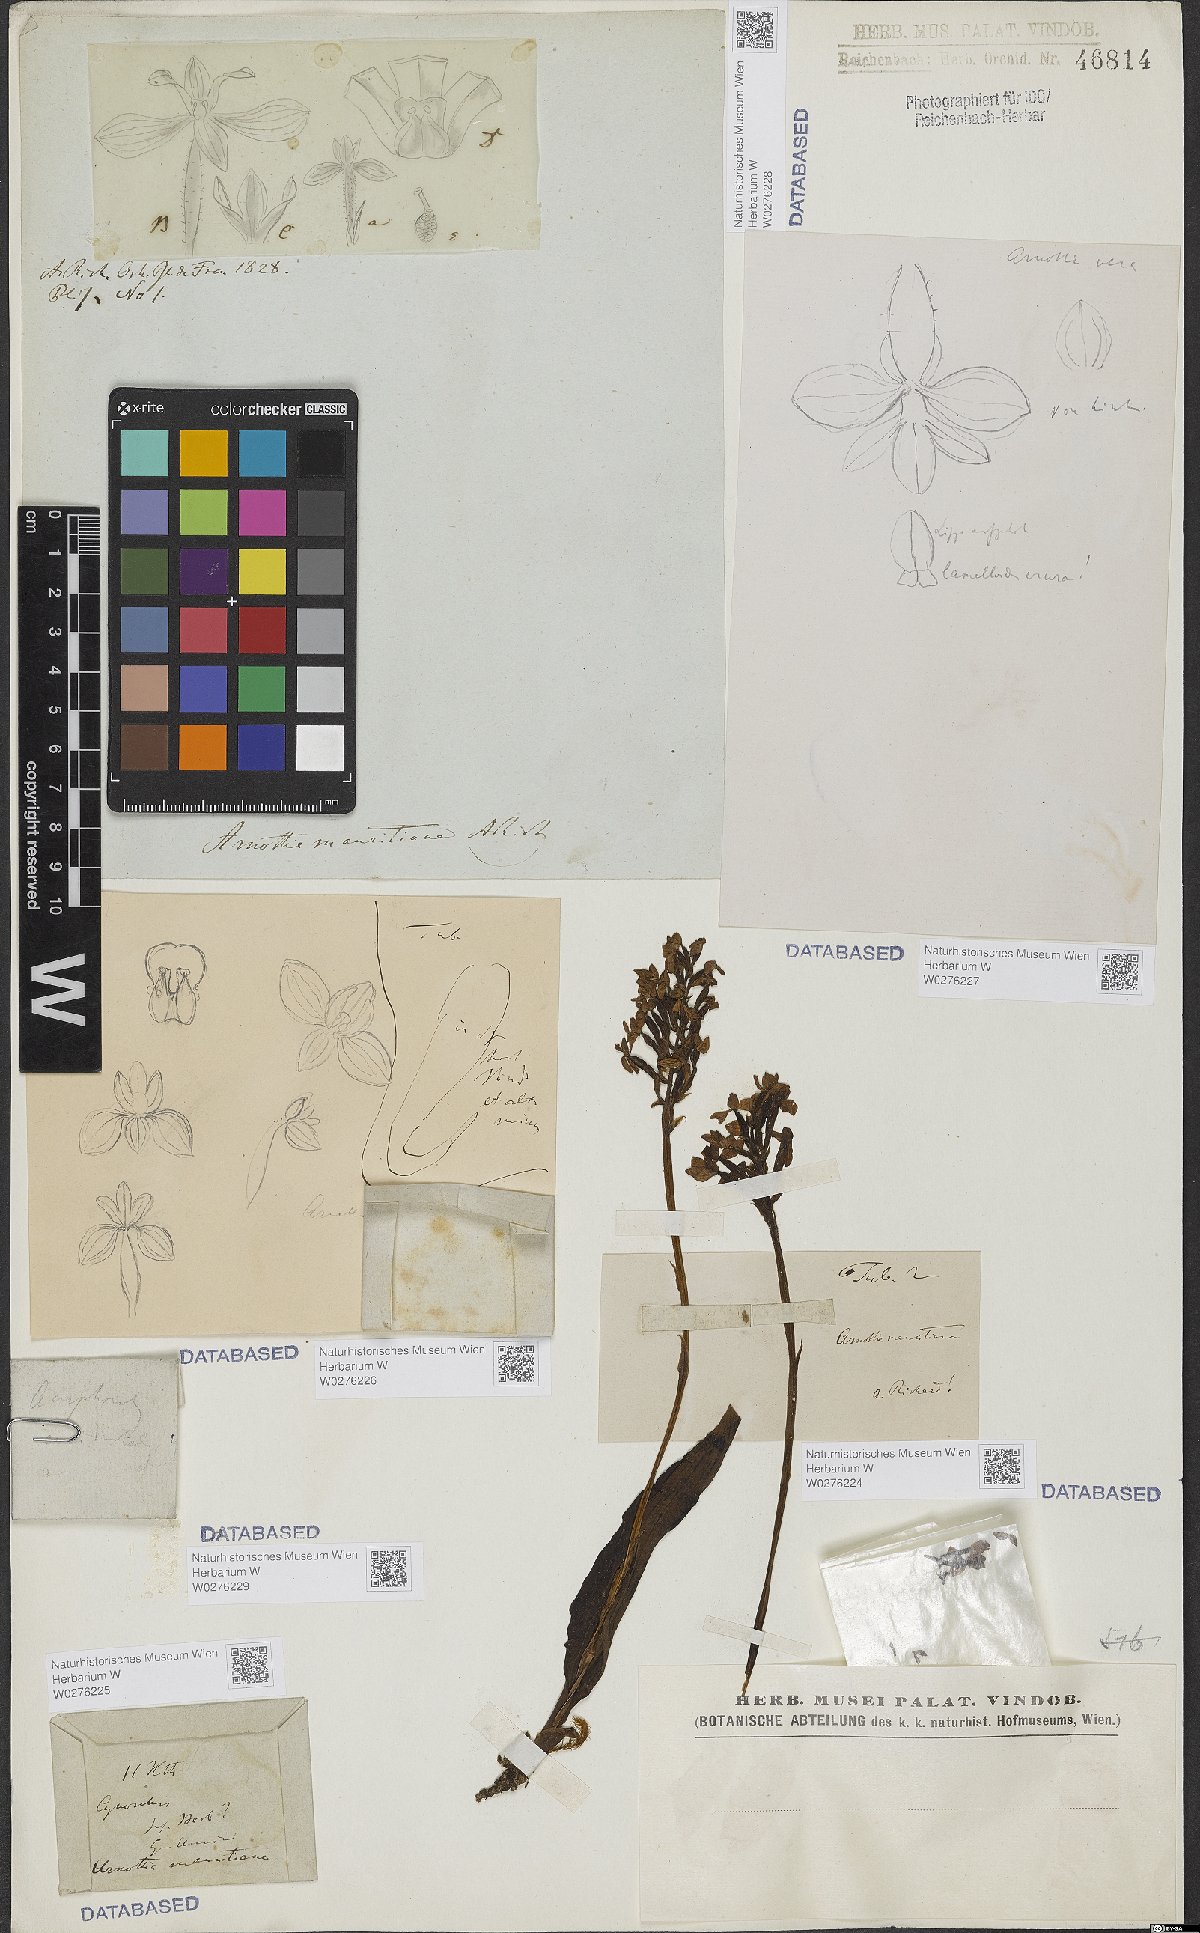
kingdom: Plantae
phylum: Tracheophyta
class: Liliopsida
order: Asparagales
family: Orchidaceae
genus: Cynorkis
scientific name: Cynorkis inermis
